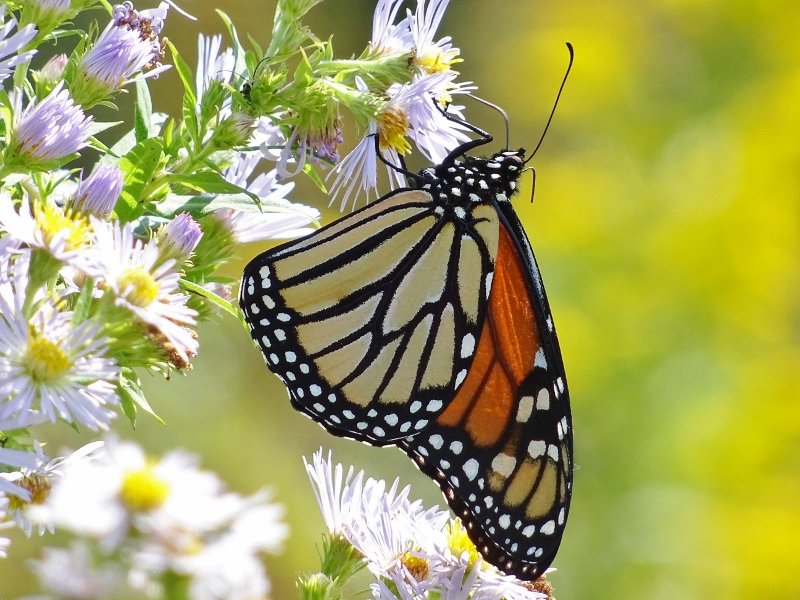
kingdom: Animalia
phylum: Arthropoda
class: Insecta
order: Lepidoptera
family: Nymphalidae
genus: Danaus
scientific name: Danaus plexippus
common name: Monarch
